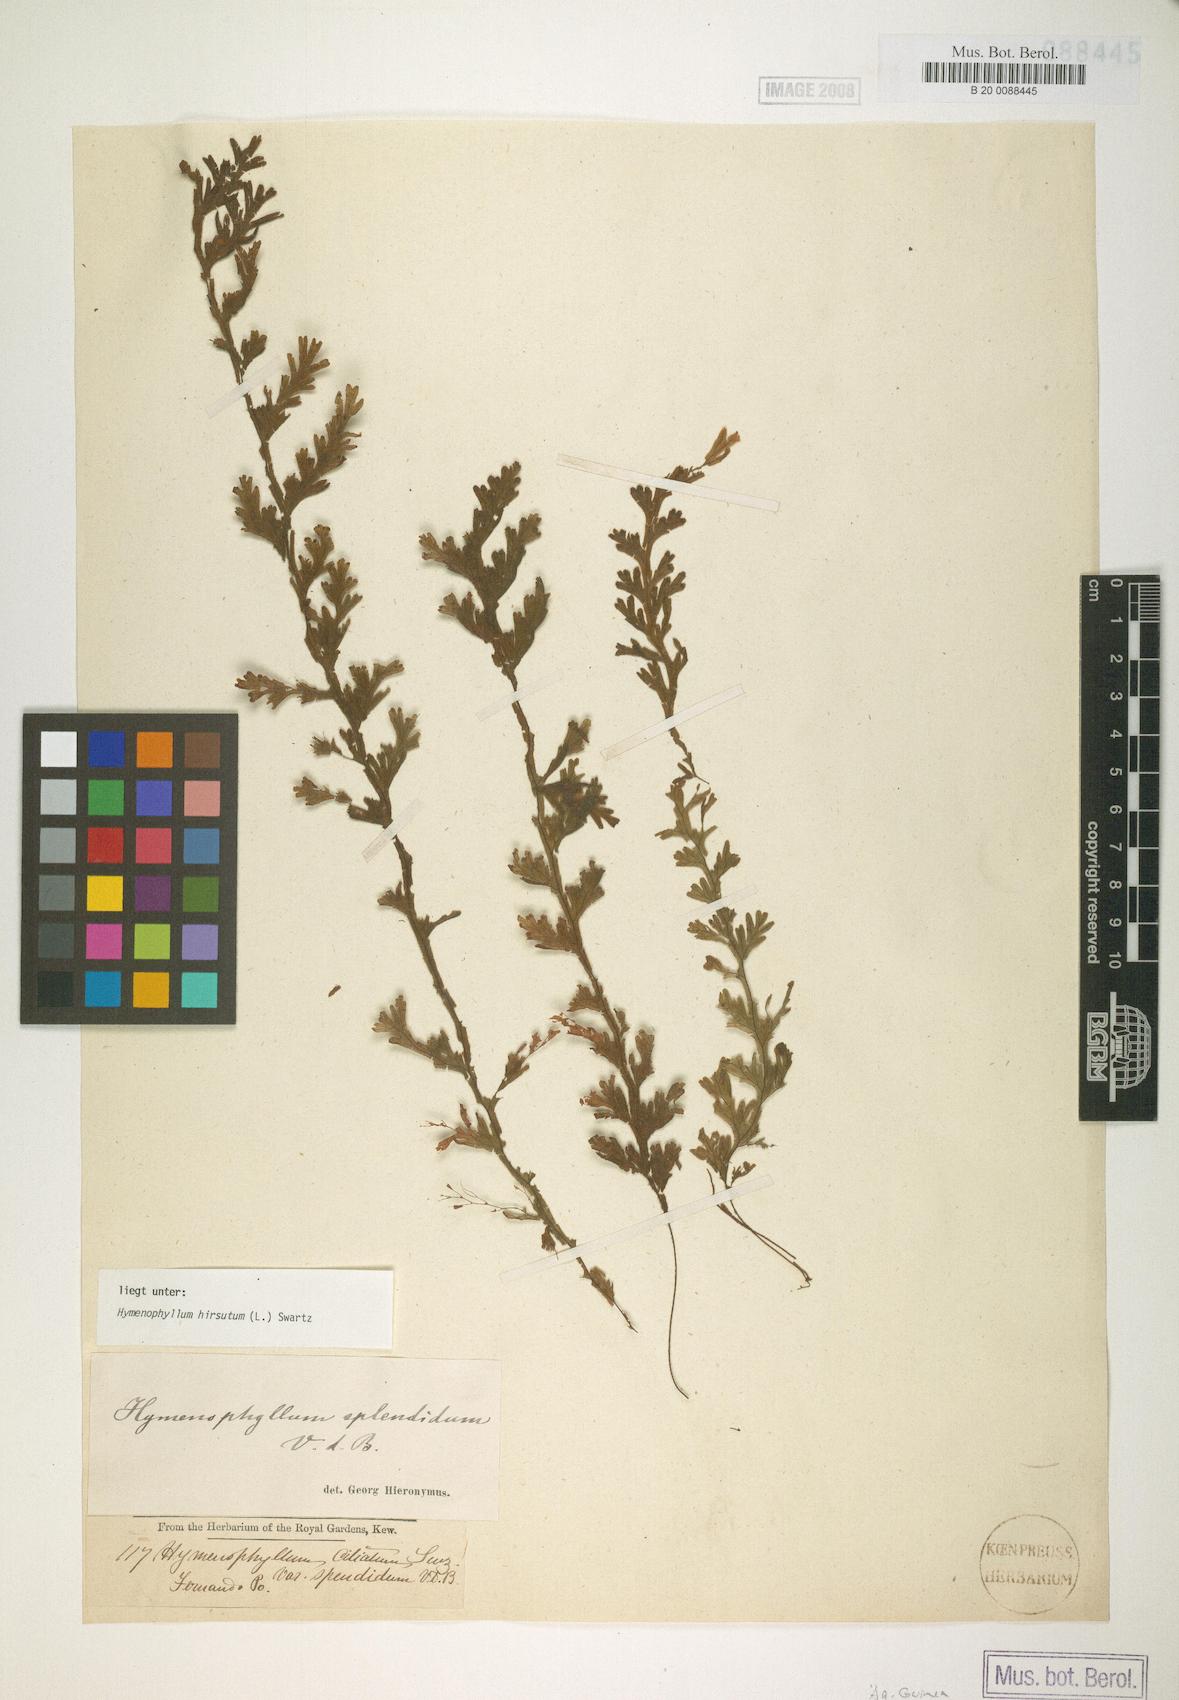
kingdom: Plantae
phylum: Tracheophyta
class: Polypodiopsida
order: Hymenophyllales
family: Hymenophyllaceae
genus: Hymenophyllum
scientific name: Hymenophyllum hirsutum
